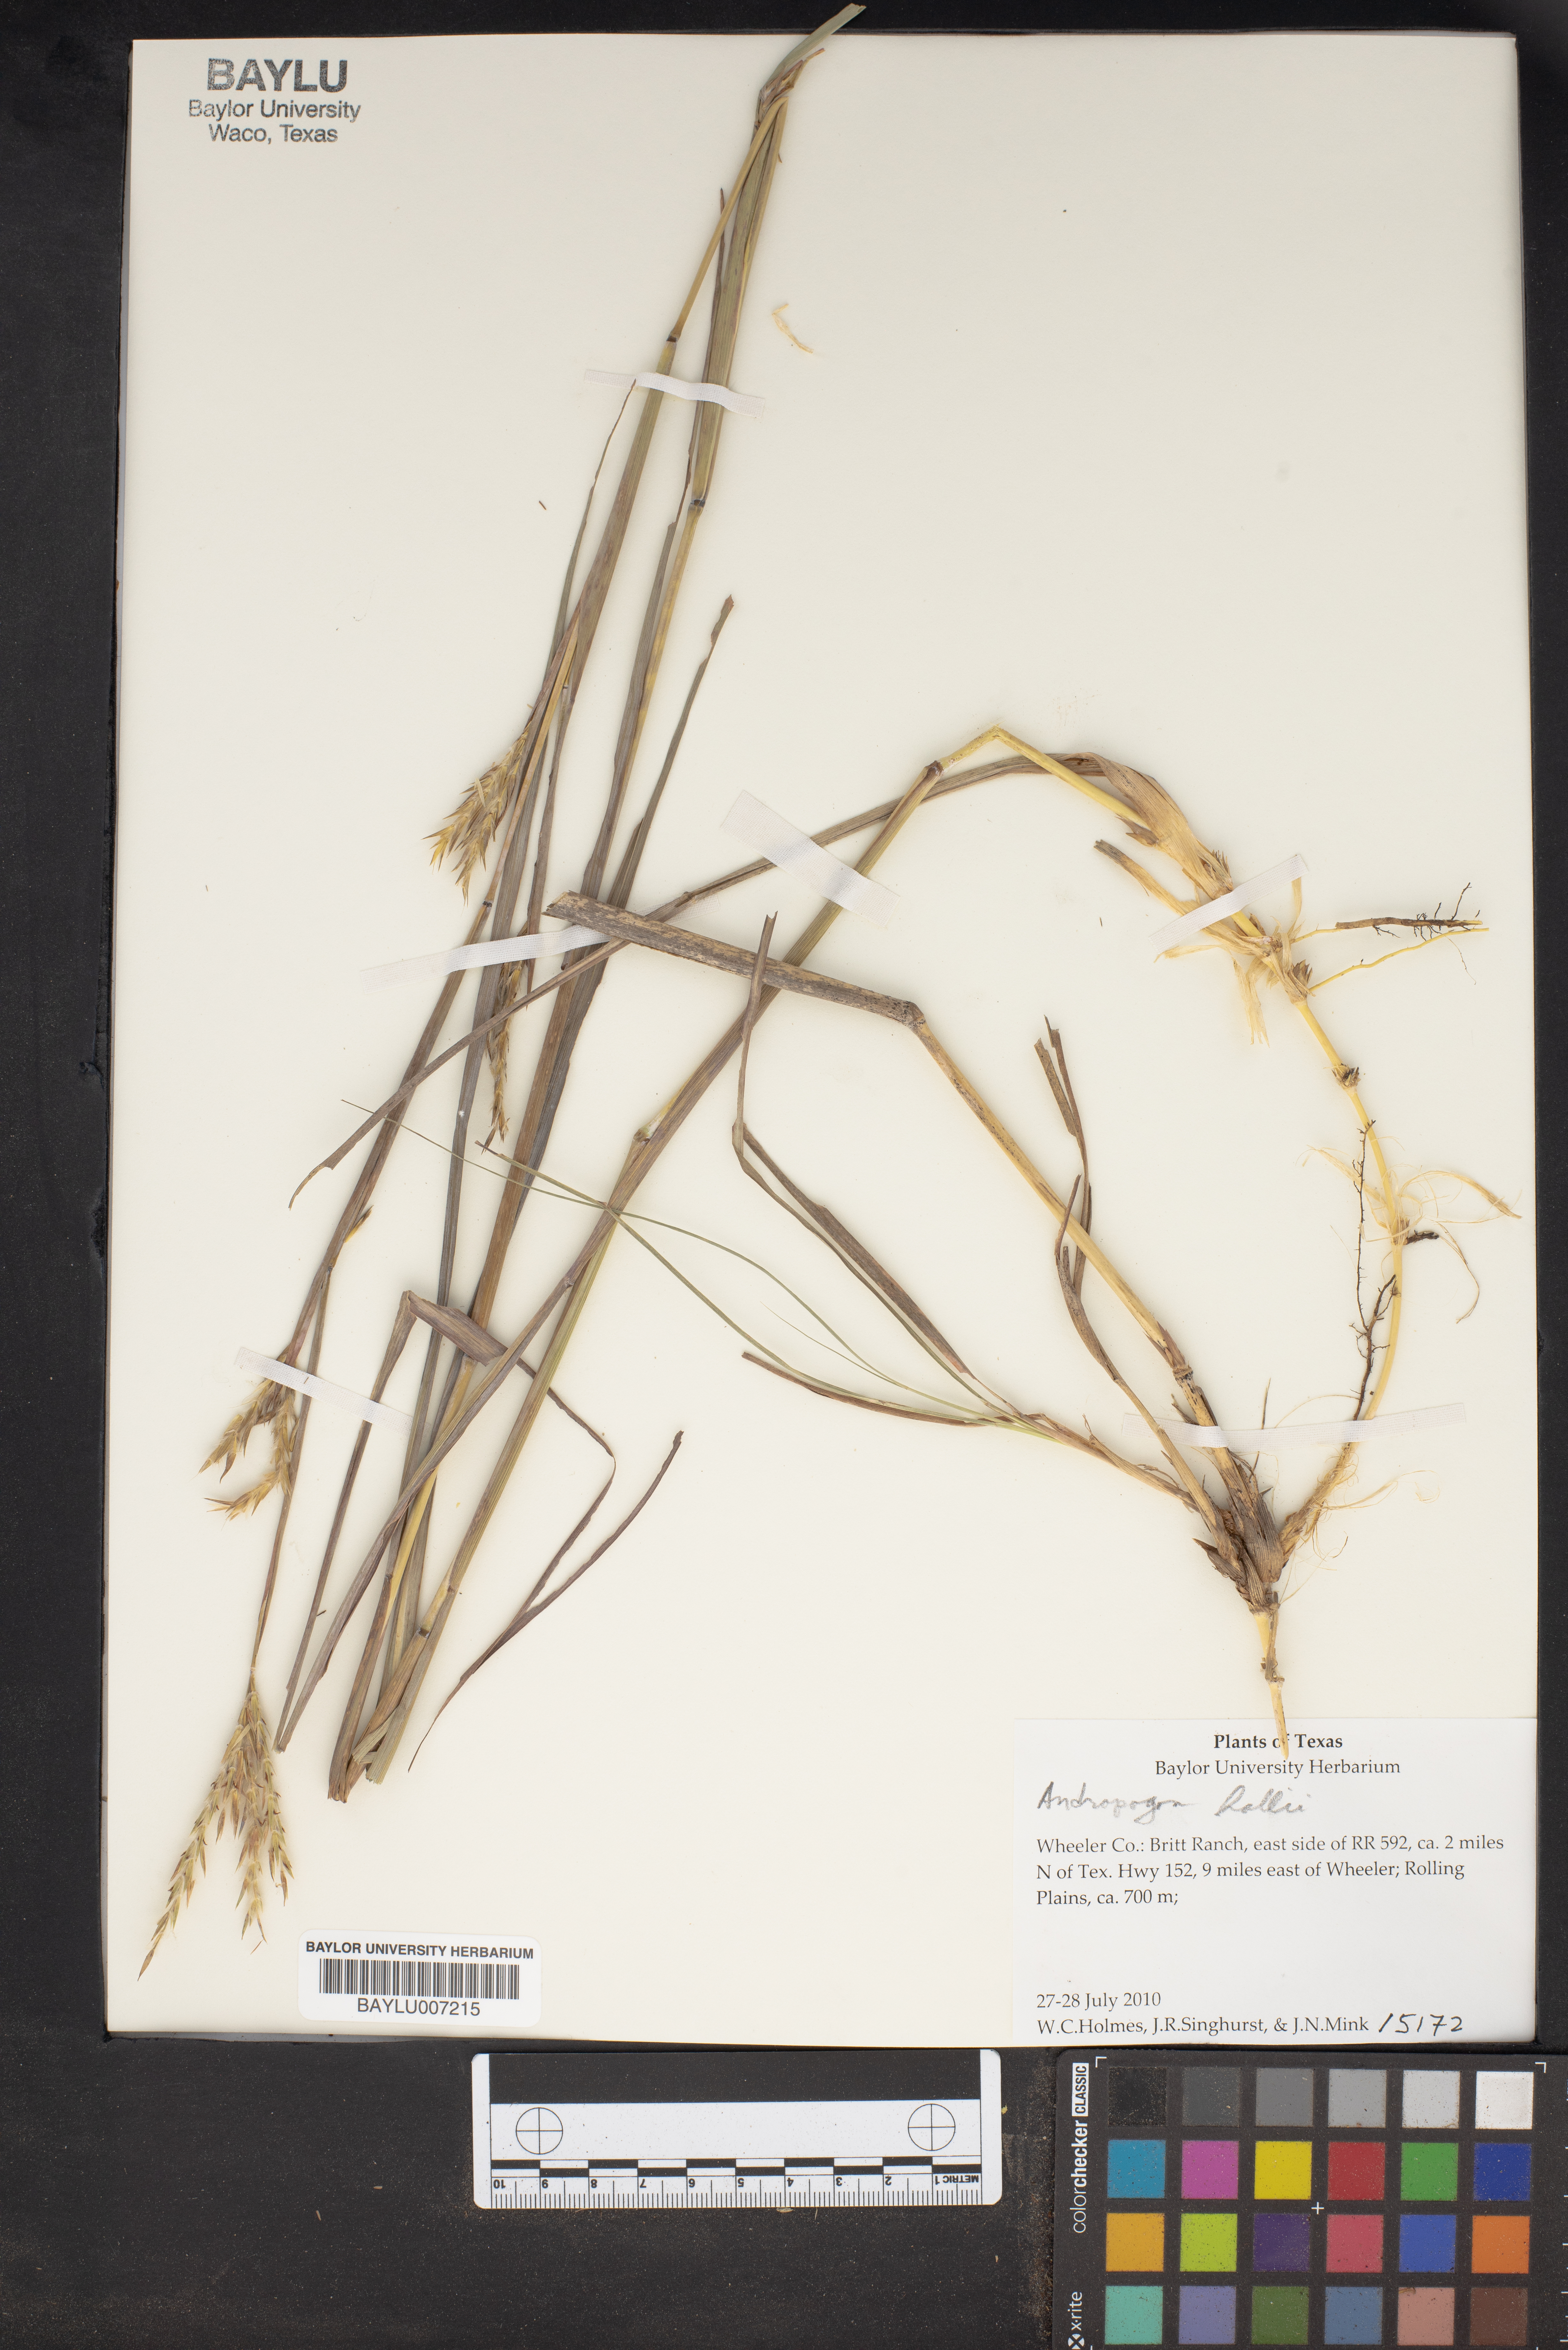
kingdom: Plantae
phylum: Tracheophyta
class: Liliopsida
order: Poales
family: Poaceae
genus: Andropogon
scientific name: Andropogon hallii
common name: Sand bluestem
